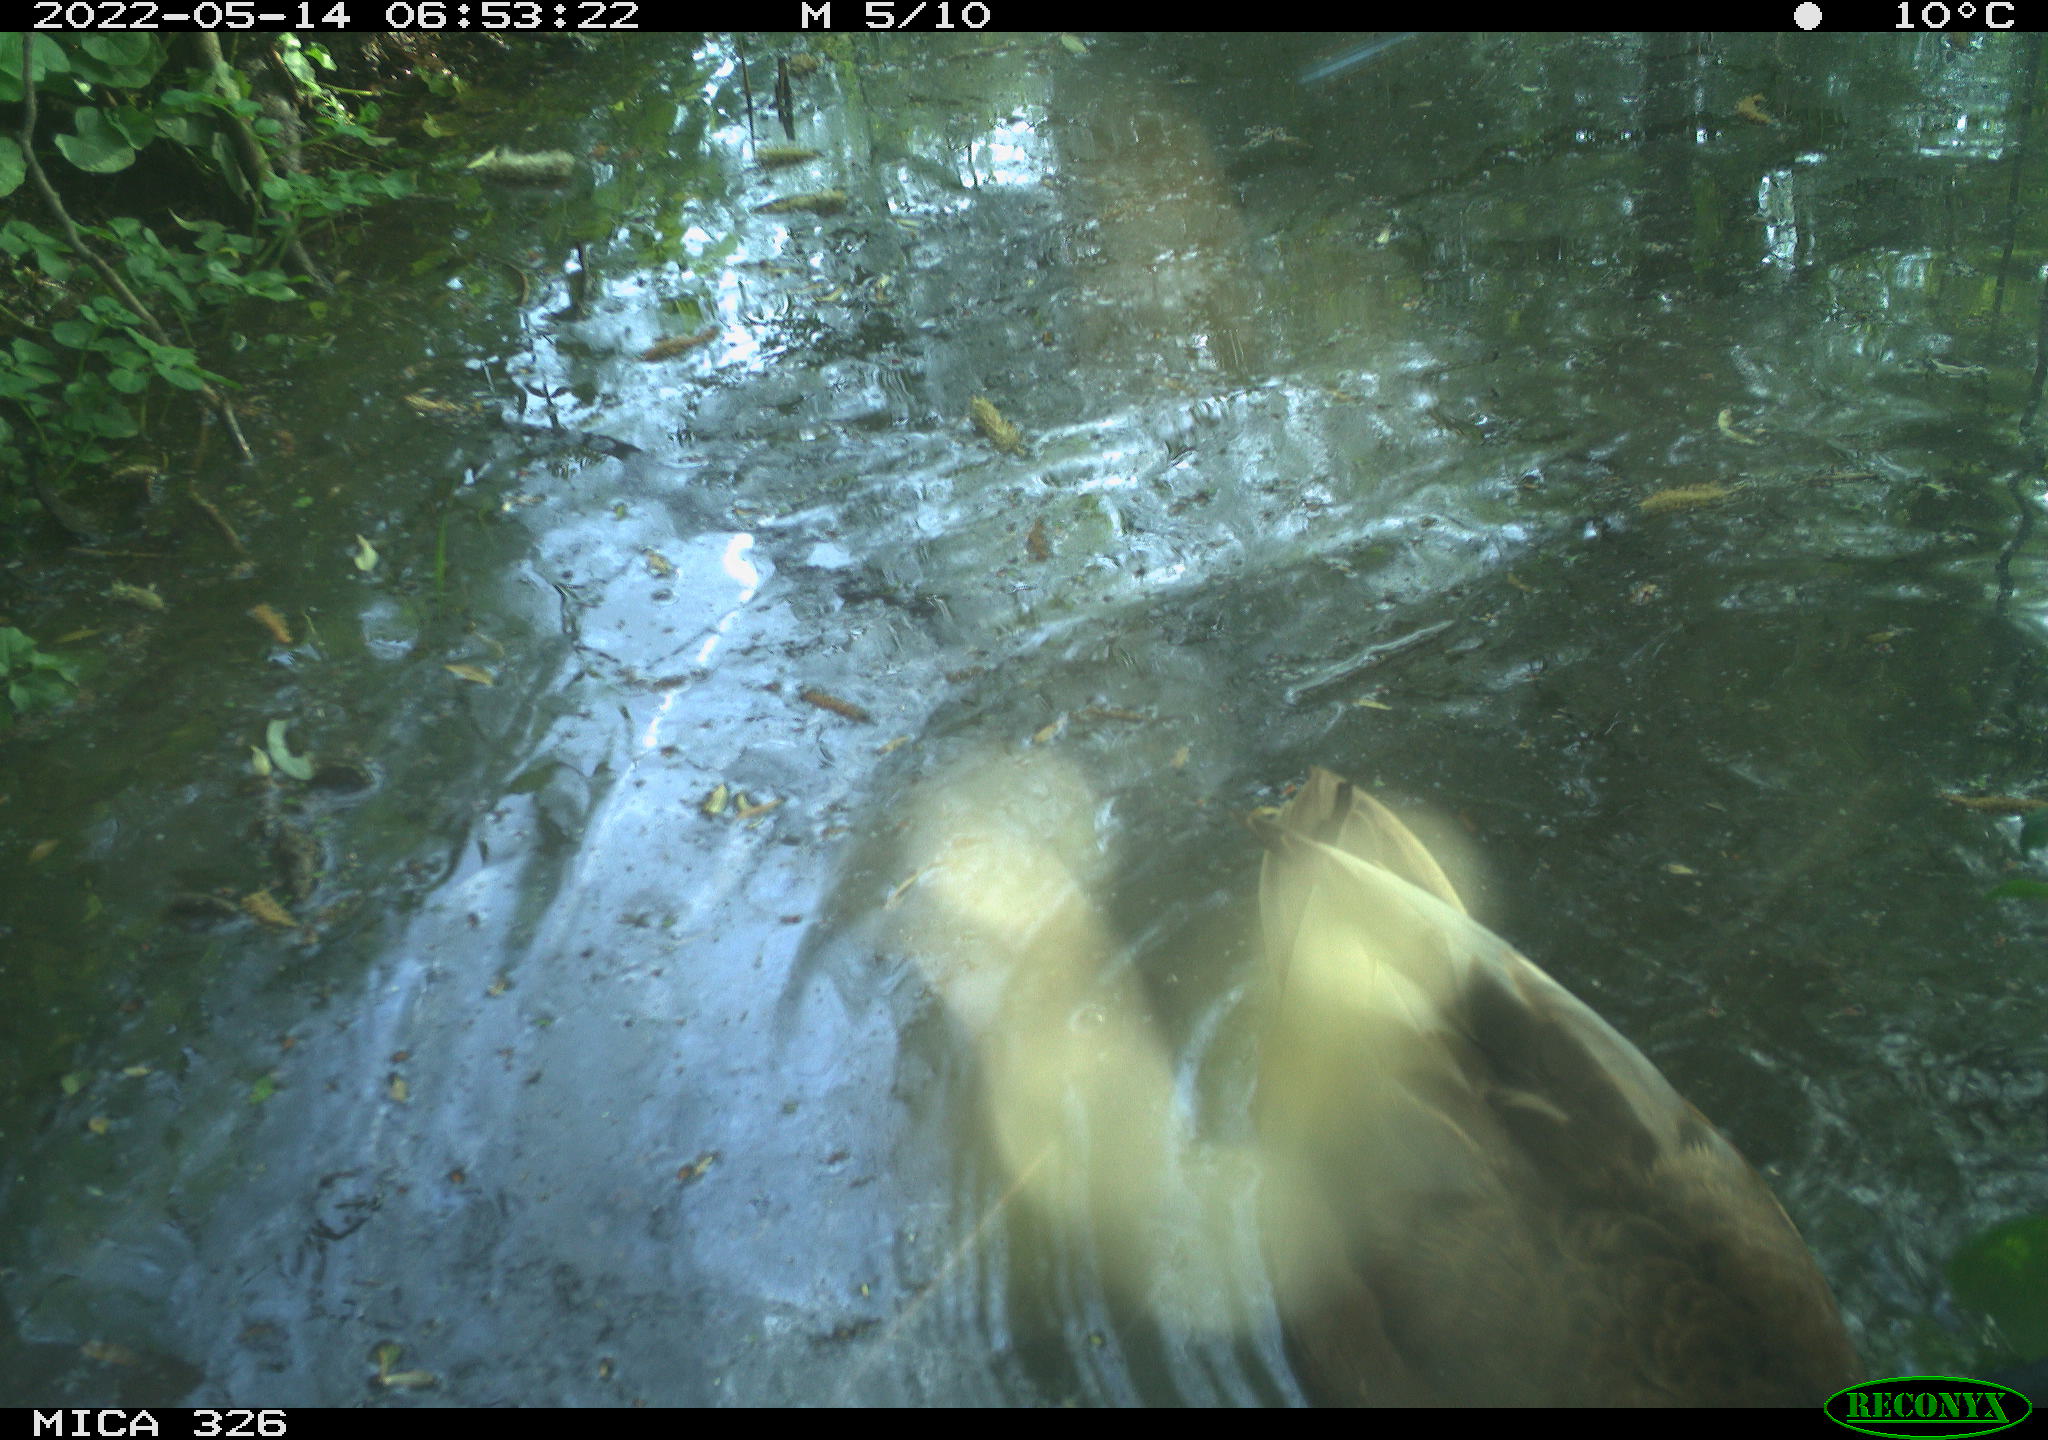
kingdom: Animalia
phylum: Chordata
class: Aves
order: Anseriformes
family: Anatidae
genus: Anas
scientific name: Anas platyrhynchos
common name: Mallard
